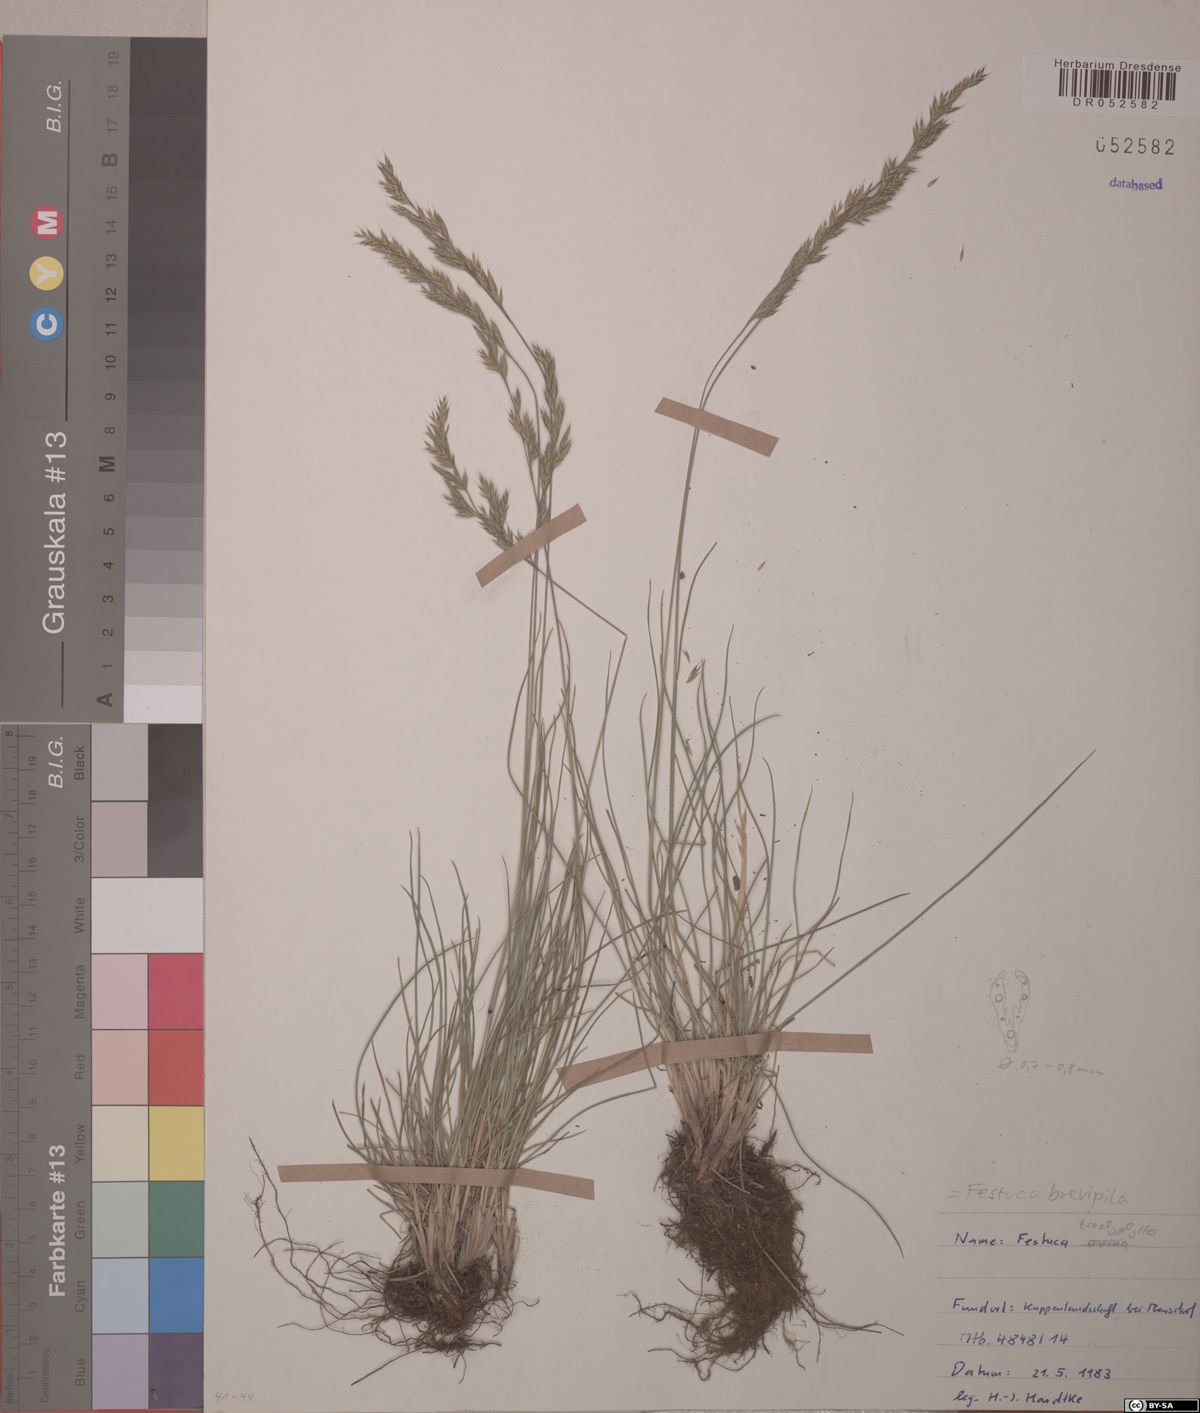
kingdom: Plantae
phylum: Tracheophyta
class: Liliopsida
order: Poales
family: Poaceae
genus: Festuca
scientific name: Festuca trachyphylla
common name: Hard fescue
